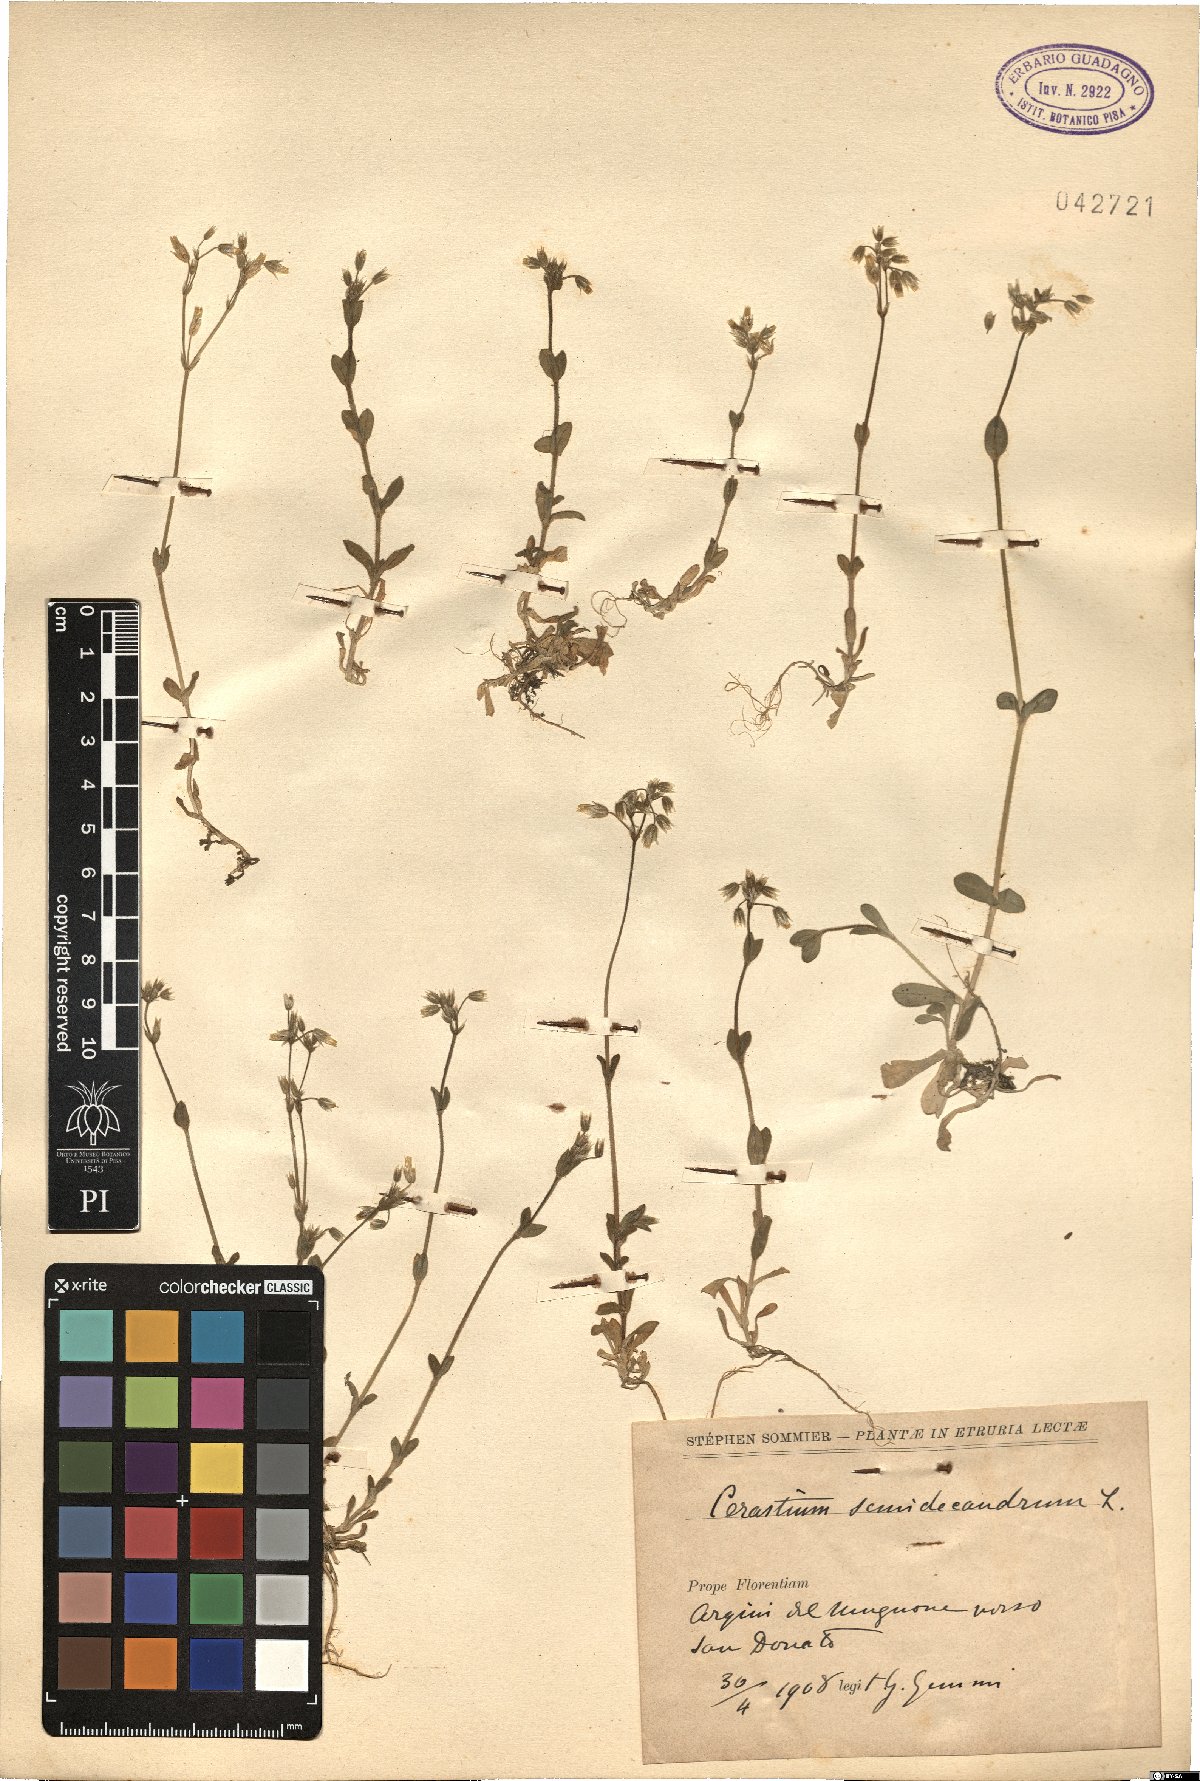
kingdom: Plantae
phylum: Tracheophyta
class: Magnoliopsida
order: Caryophyllales
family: Caryophyllaceae
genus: Cerastium
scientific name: Cerastium semidecandrum
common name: Little mouse-ear
